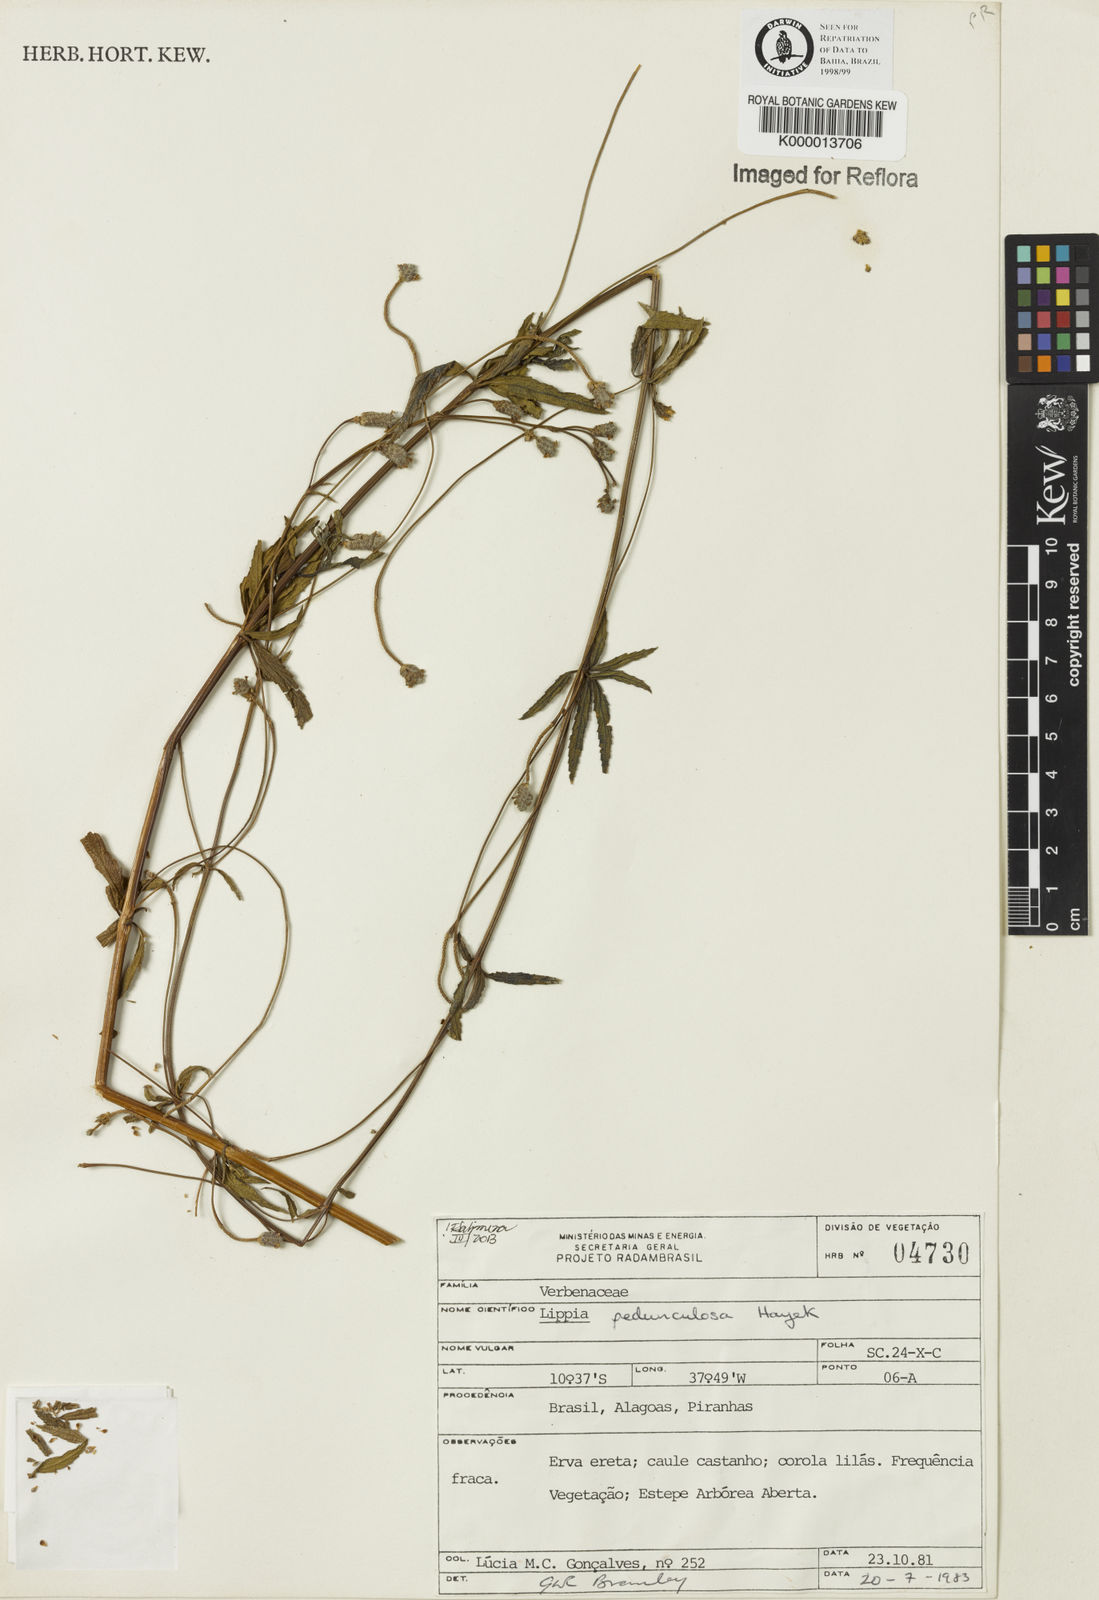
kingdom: Plantae
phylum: Tracheophyta
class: Magnoliopsida
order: Lamiales
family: Verbenaceae
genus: Lippia
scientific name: Lippia pedunculosa
